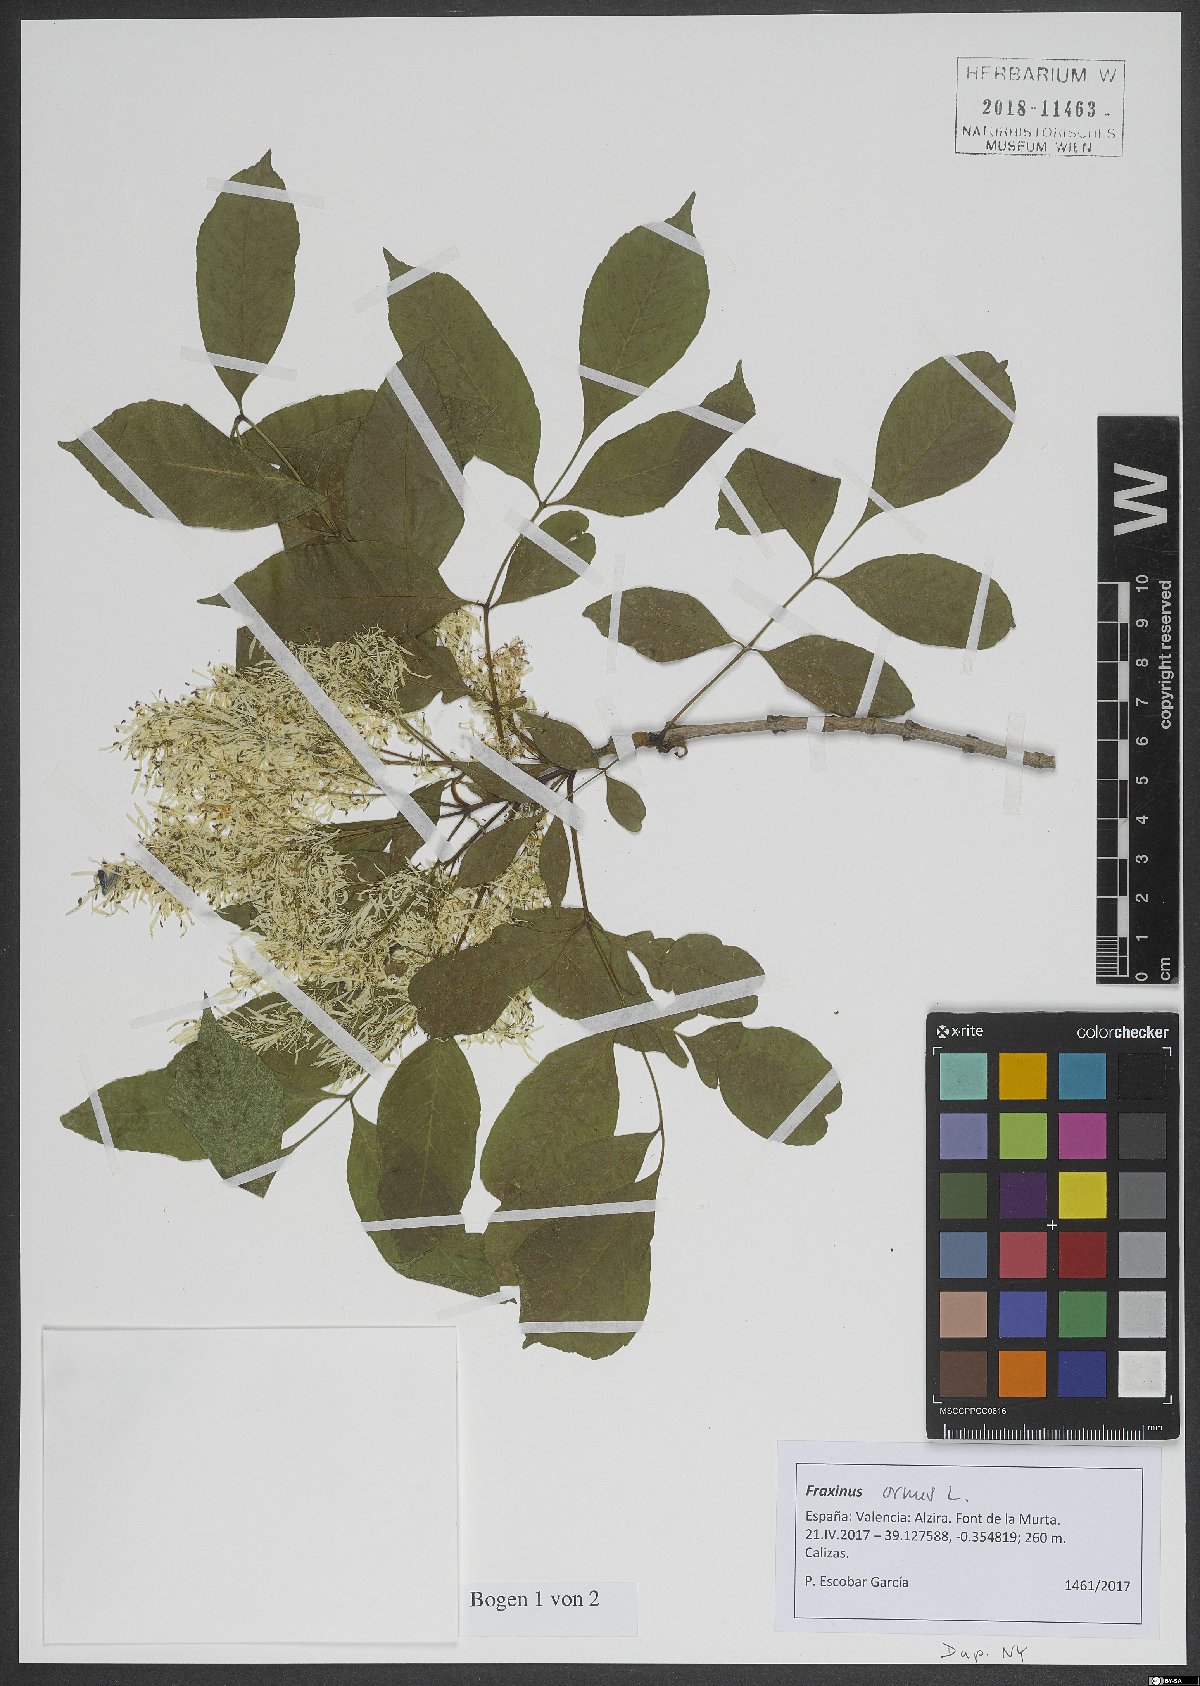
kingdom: Plantae
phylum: Tracheophyta
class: Magnoliopsida
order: Lamiales
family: Oleaceae
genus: Fraxinus
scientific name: Fraxinus ornus
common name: Manna ash
